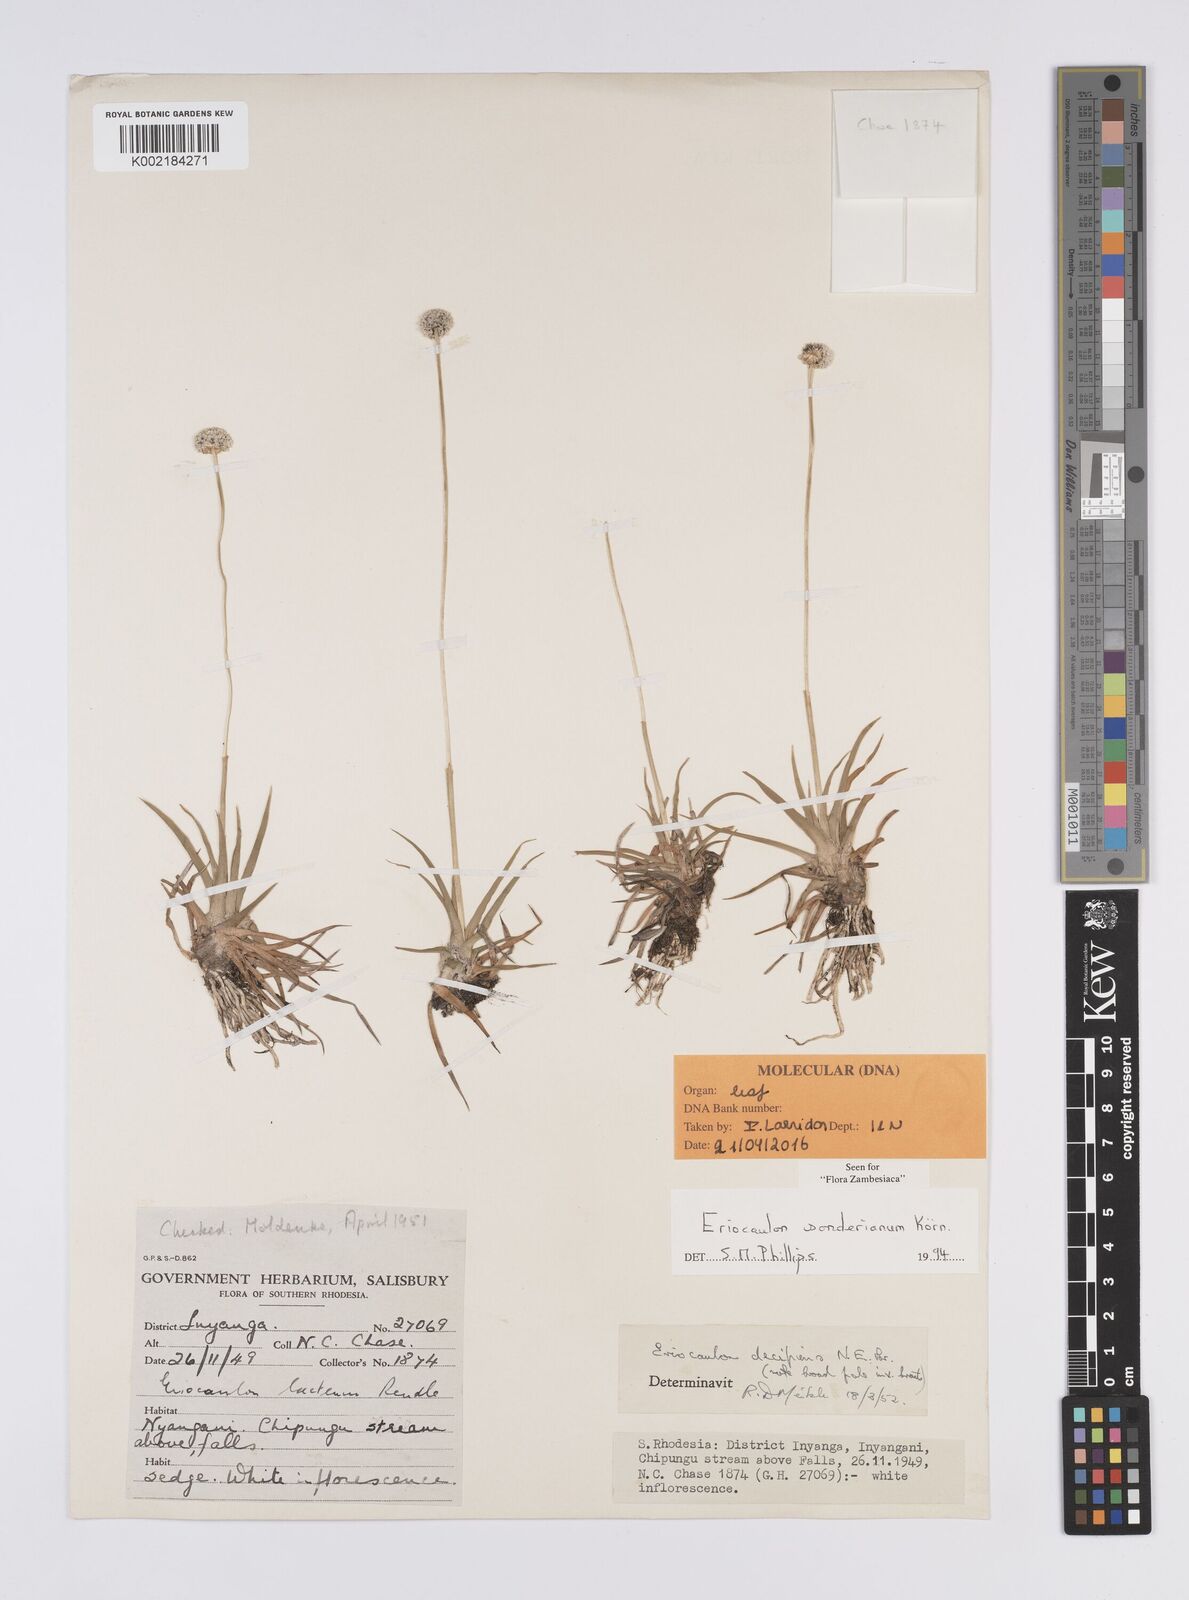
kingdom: Plantae
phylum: Tracheophyta
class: Liliopsida
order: Poales
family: Eriocaulaceae
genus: Eriocaulon
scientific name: Eriocaulon sonderianum
